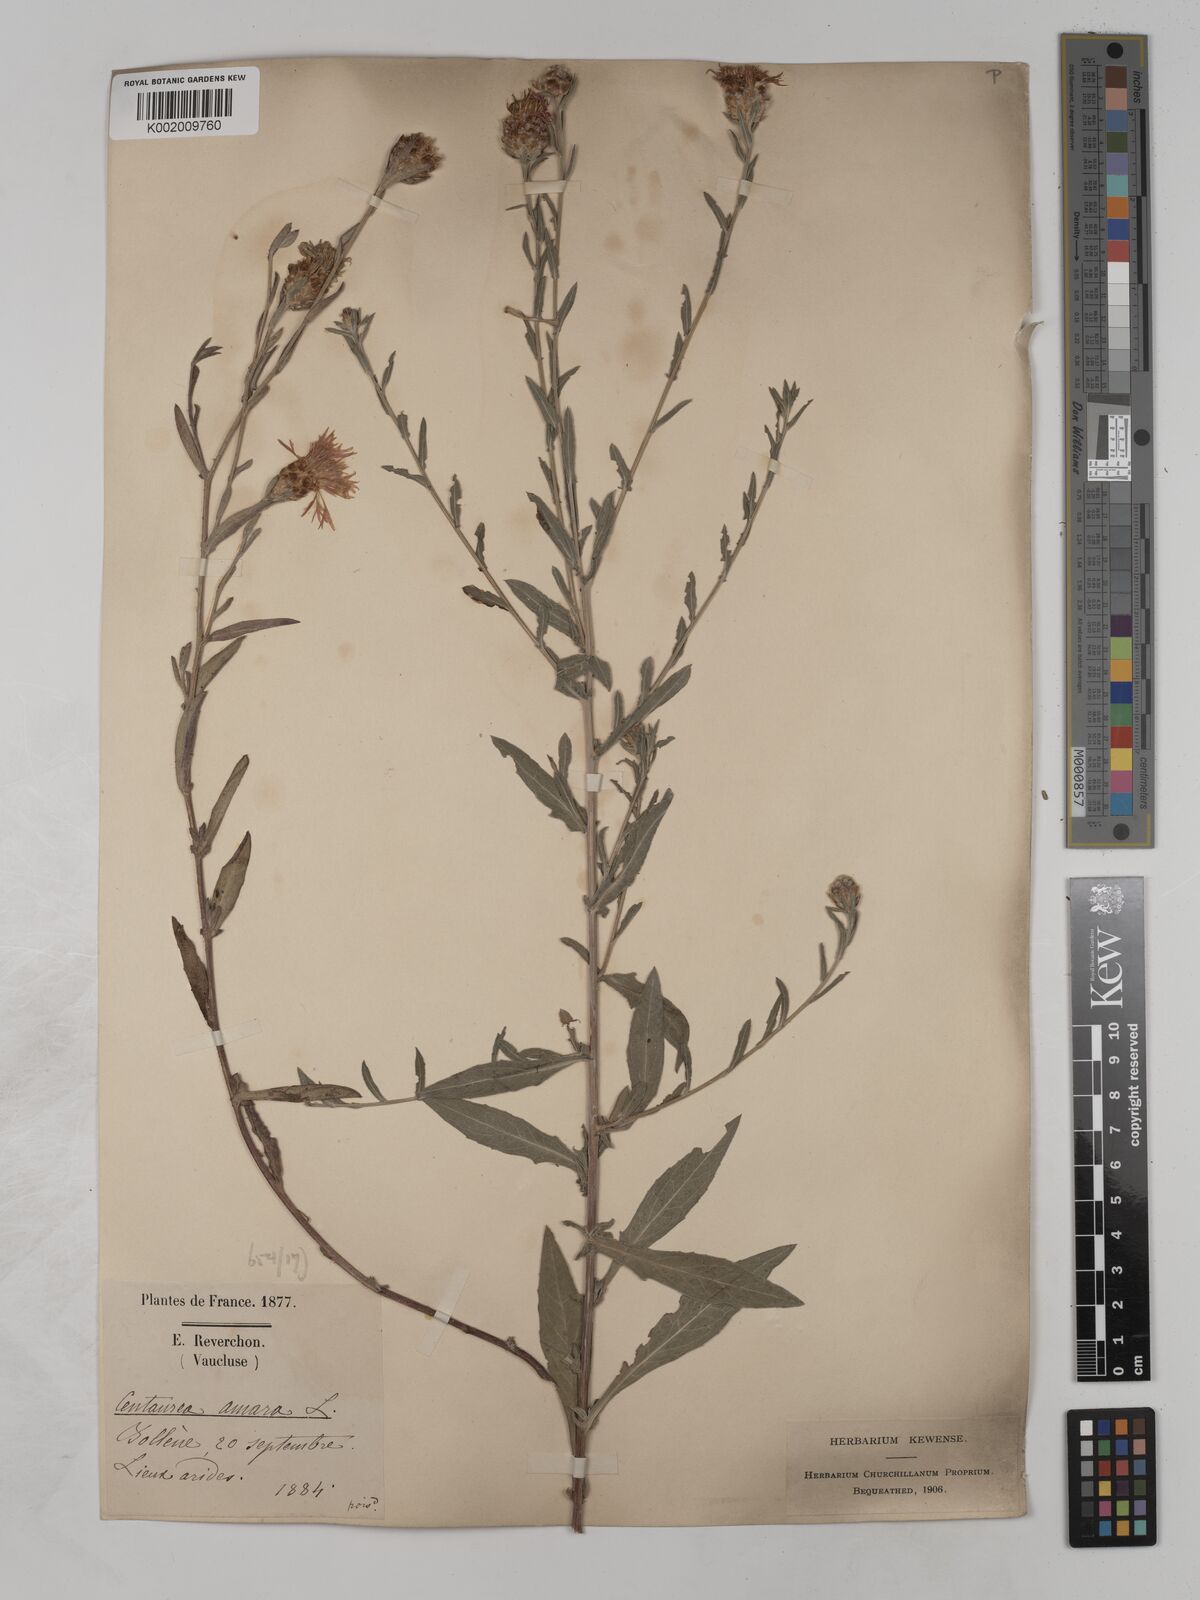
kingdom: Plantae
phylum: Tracheophyta
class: Magnoliopsida
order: Asterales
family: Asteraceae
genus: Centaurea
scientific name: Centaurea timbalii
